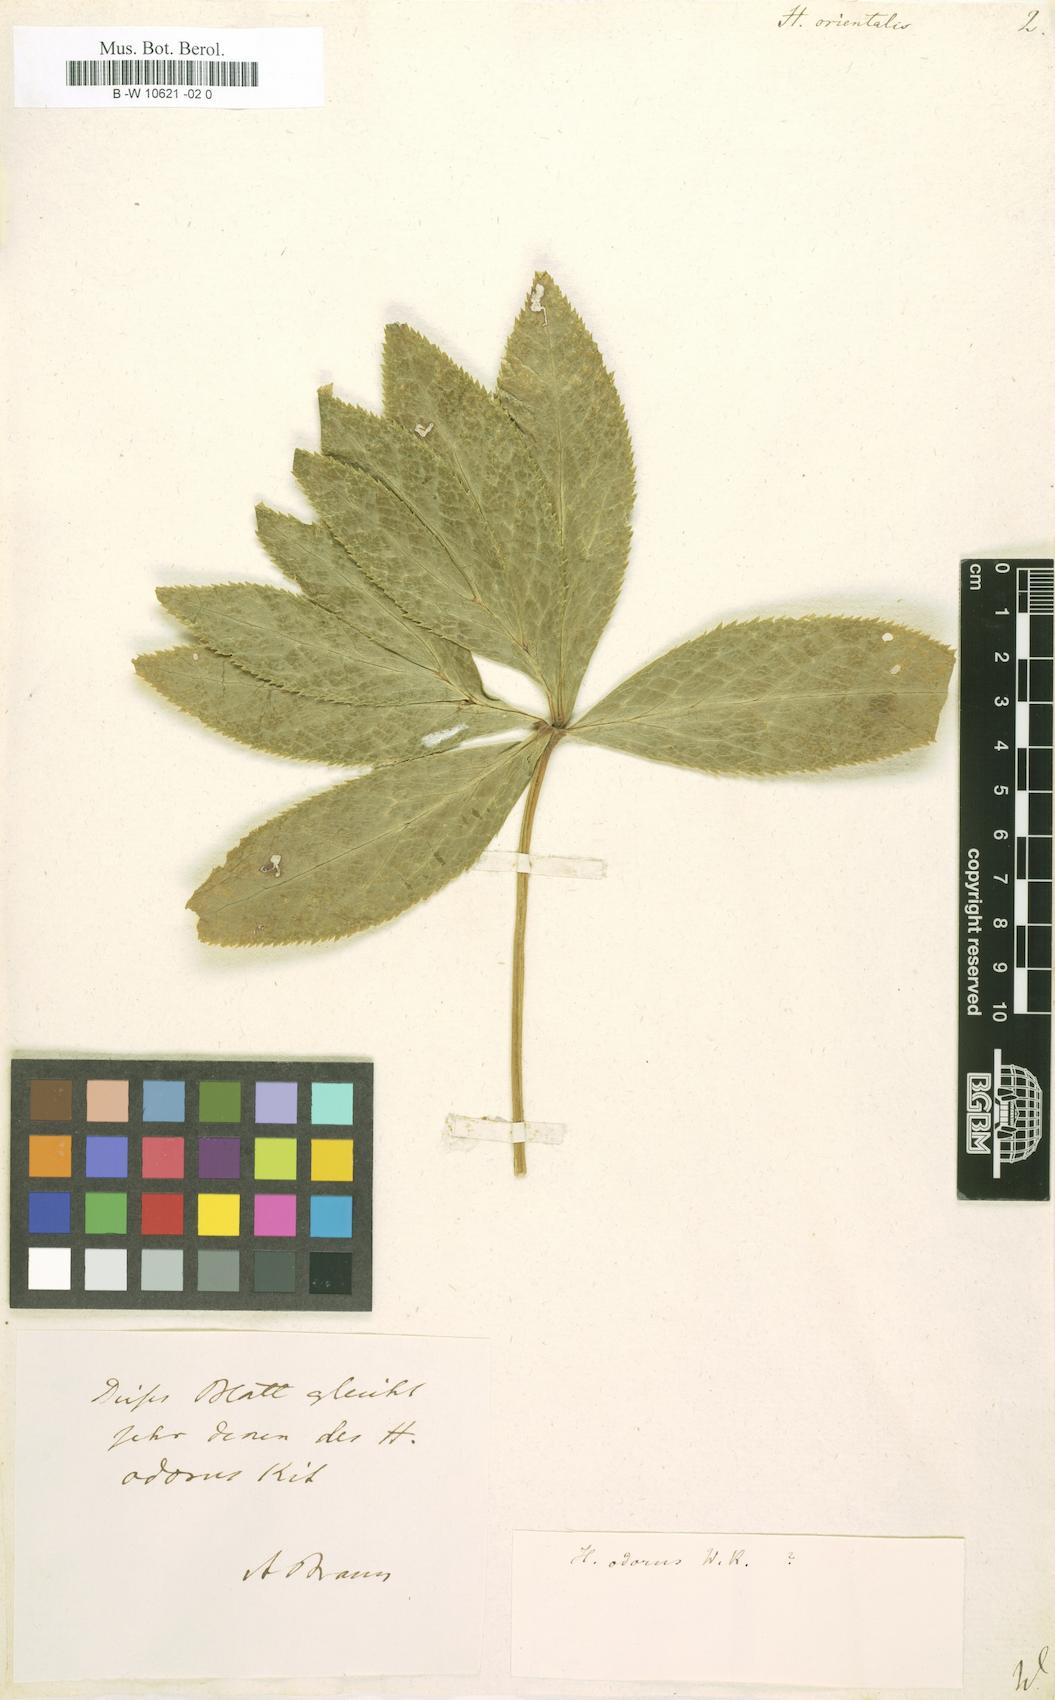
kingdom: Plantae
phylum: Tracheophyta
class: Magnoliopsida
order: Ranunculales
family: Ranunculaceae
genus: Helleborus
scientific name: Helleborus orientalis
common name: Lenten-rose
